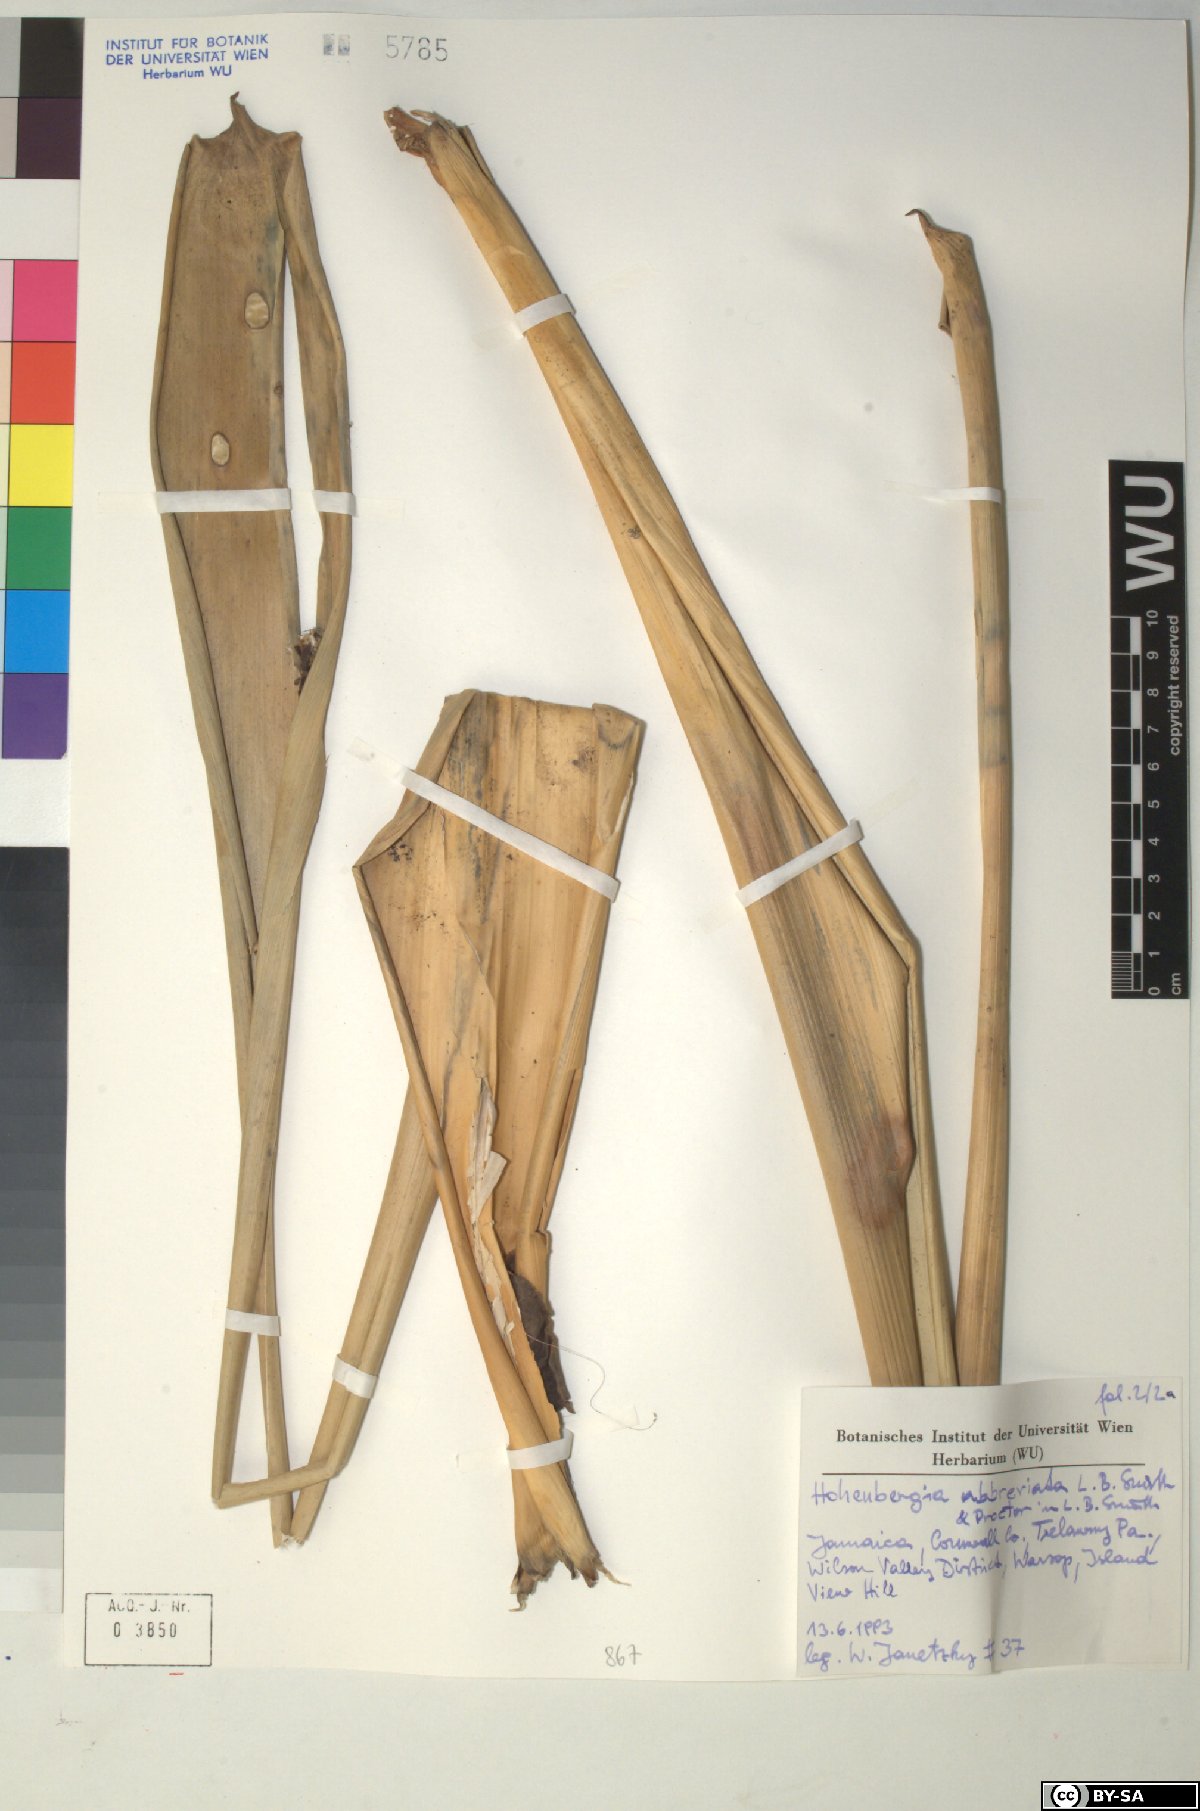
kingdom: Plantae
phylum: Tracheophyta
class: Liliopsida
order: Poales
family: Bromeliaceae
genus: Wittmackia
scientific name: Wittmackia abbreviata
